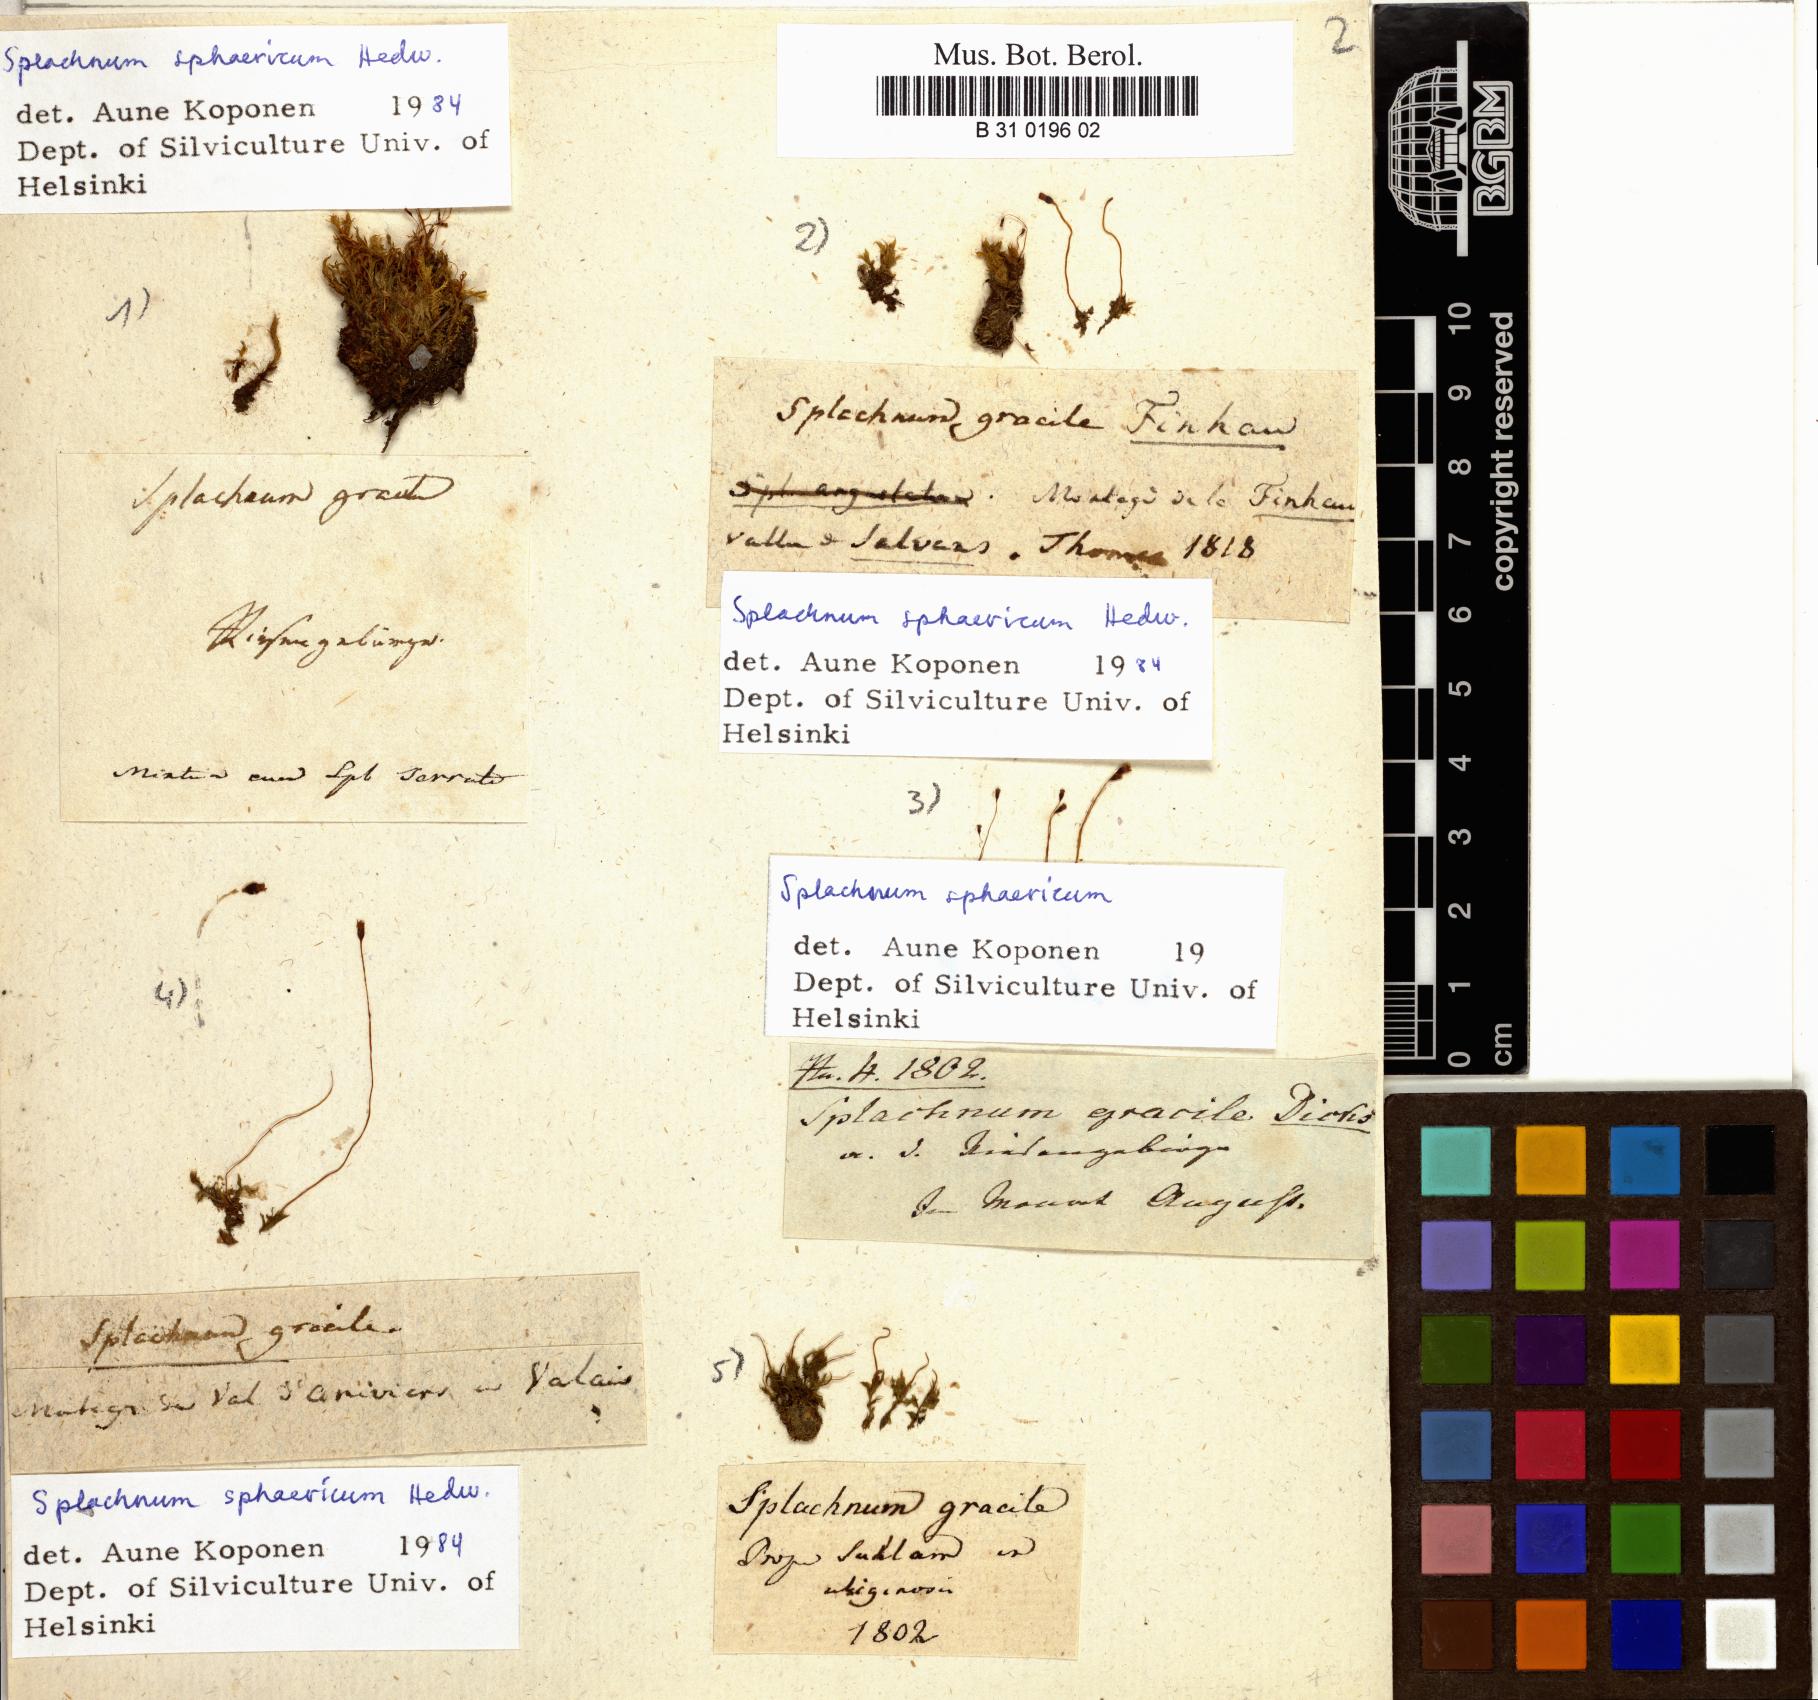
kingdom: Plantae
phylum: Bryophyta
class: Bryopsida
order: Splachnales
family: Splachnaceae
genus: Splachnum
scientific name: Splachnum sphaericum
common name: Round-fruited dung moss
